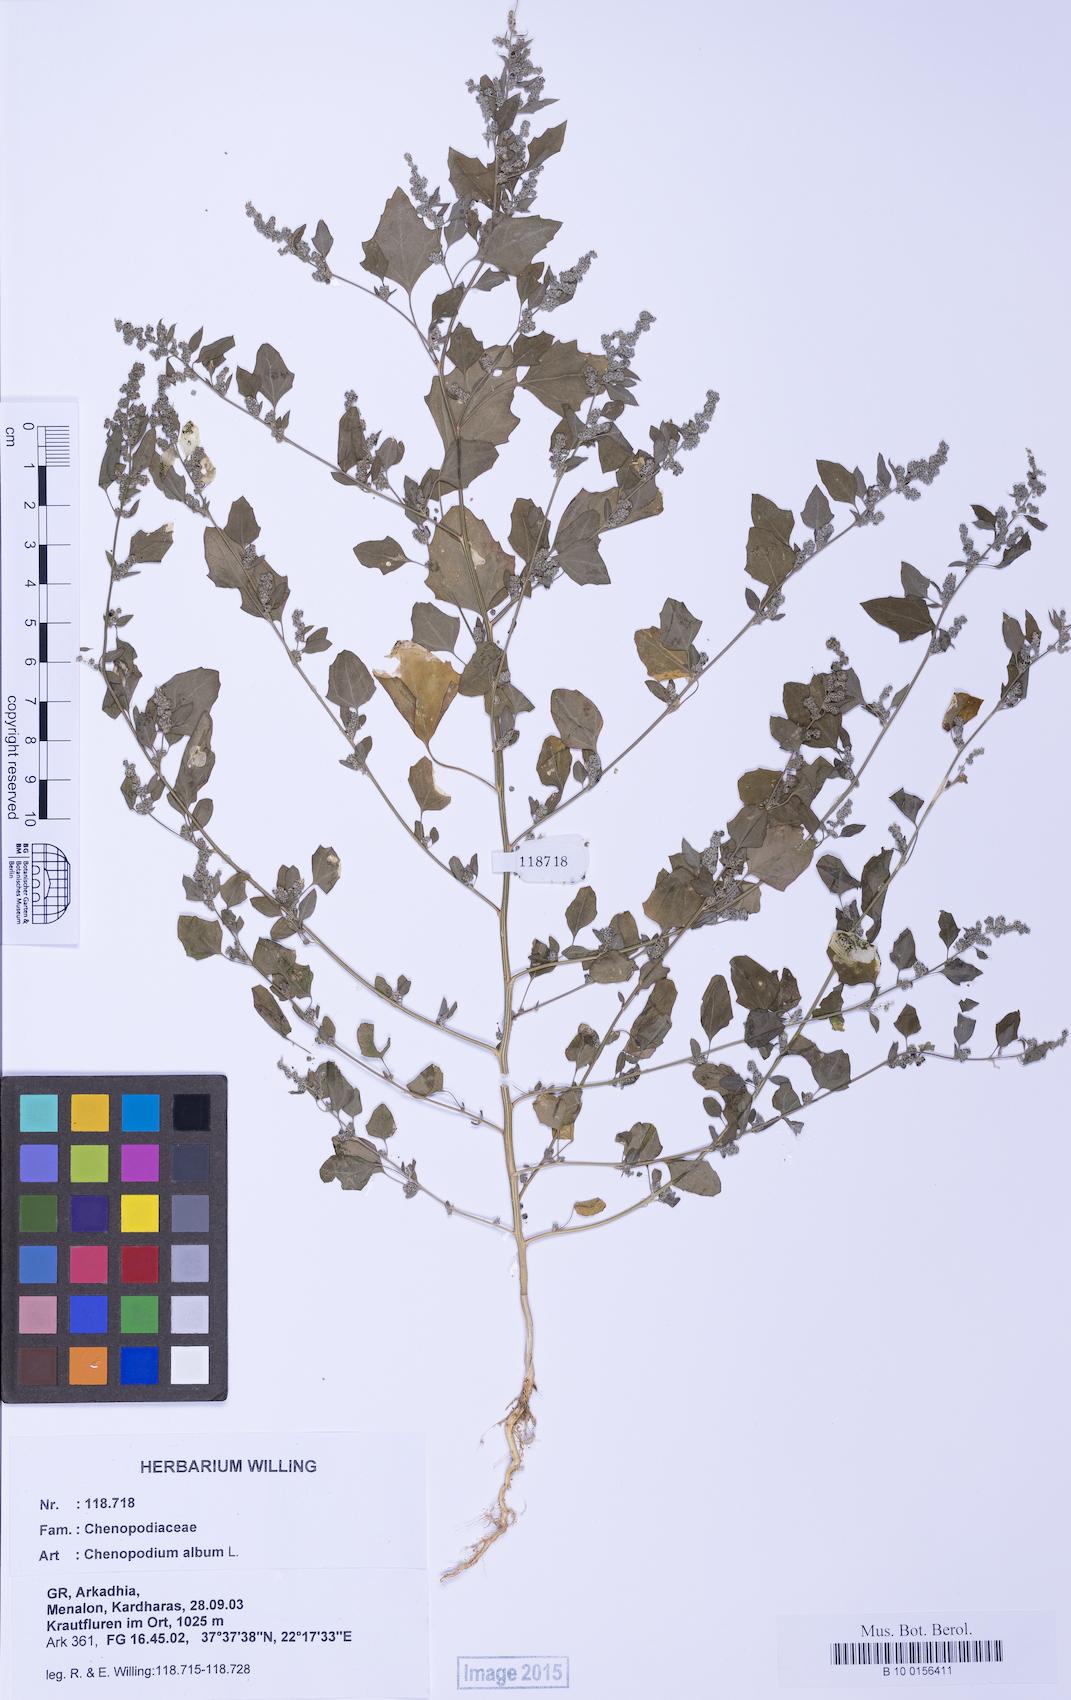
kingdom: Plantae
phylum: Tracheophyta
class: Magnoliopsida
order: Caryophyllales
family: Amaranthaceae
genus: Chenopodium
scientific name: Chenopodium striatiforme
